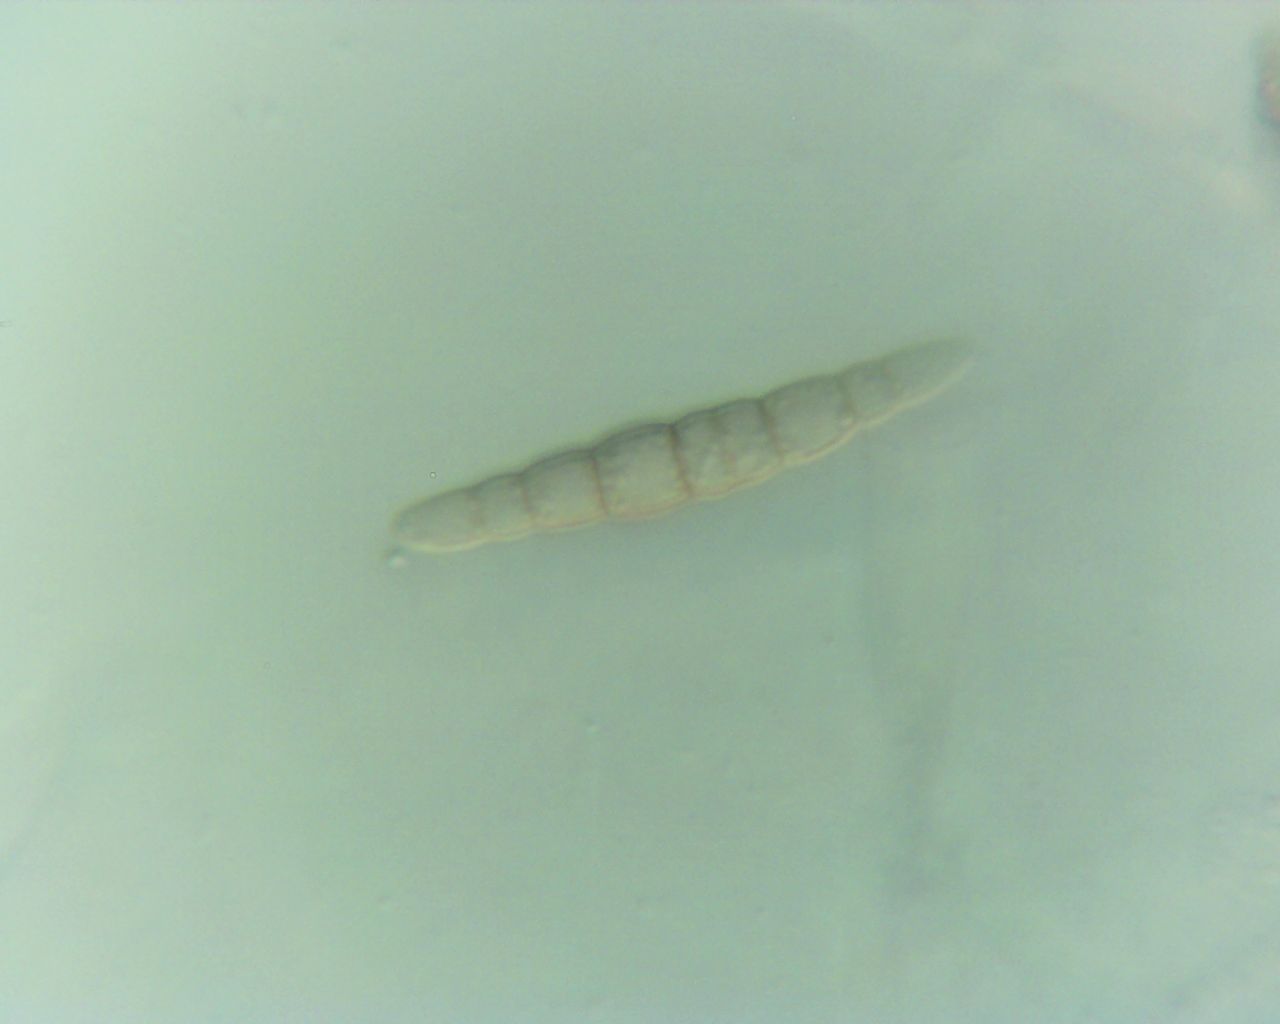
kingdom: Fungi
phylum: Ascomycota
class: Dothideomycetes
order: Pleosporales
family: Leptosphaeriaceae
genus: Leptosphaeria
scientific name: Leptosphaeria acuta
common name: spids kulkegle
